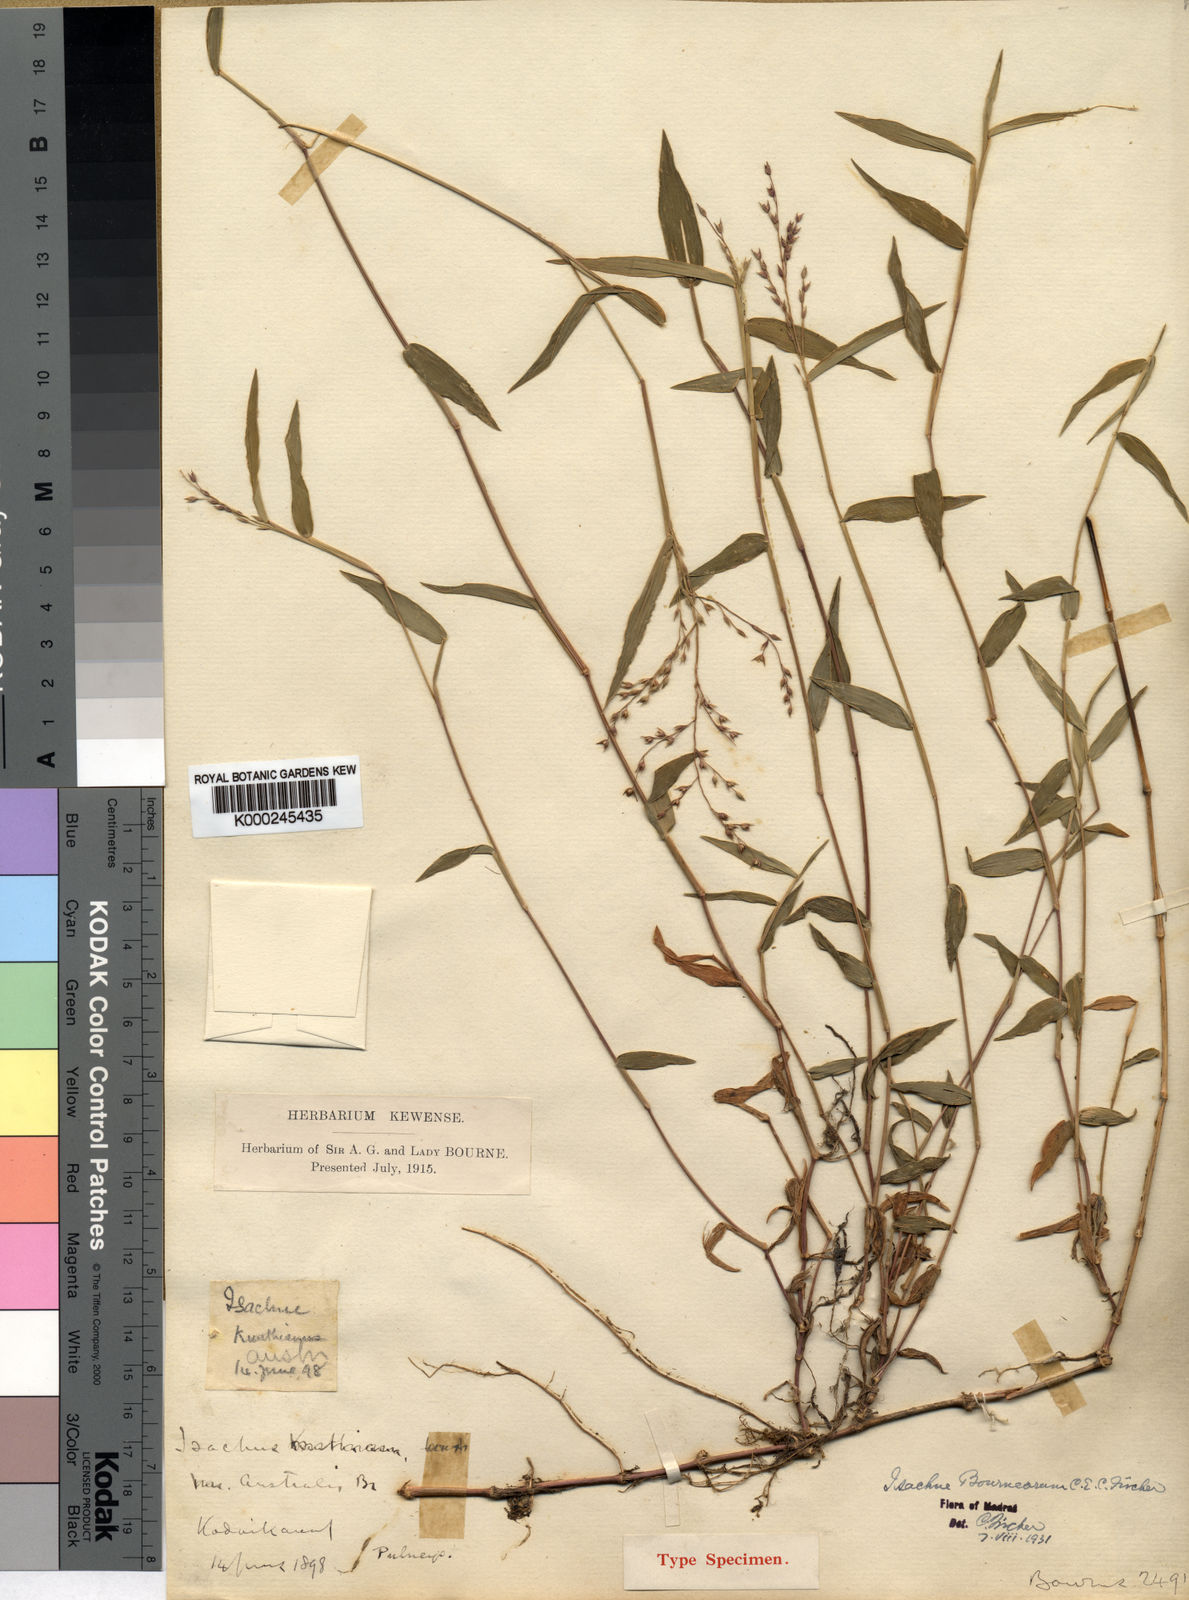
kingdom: Plantae
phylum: Tracheophyta
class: Liliopsida
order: Poales
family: Poaceae
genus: Isachne
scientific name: Isachne bourneorum
